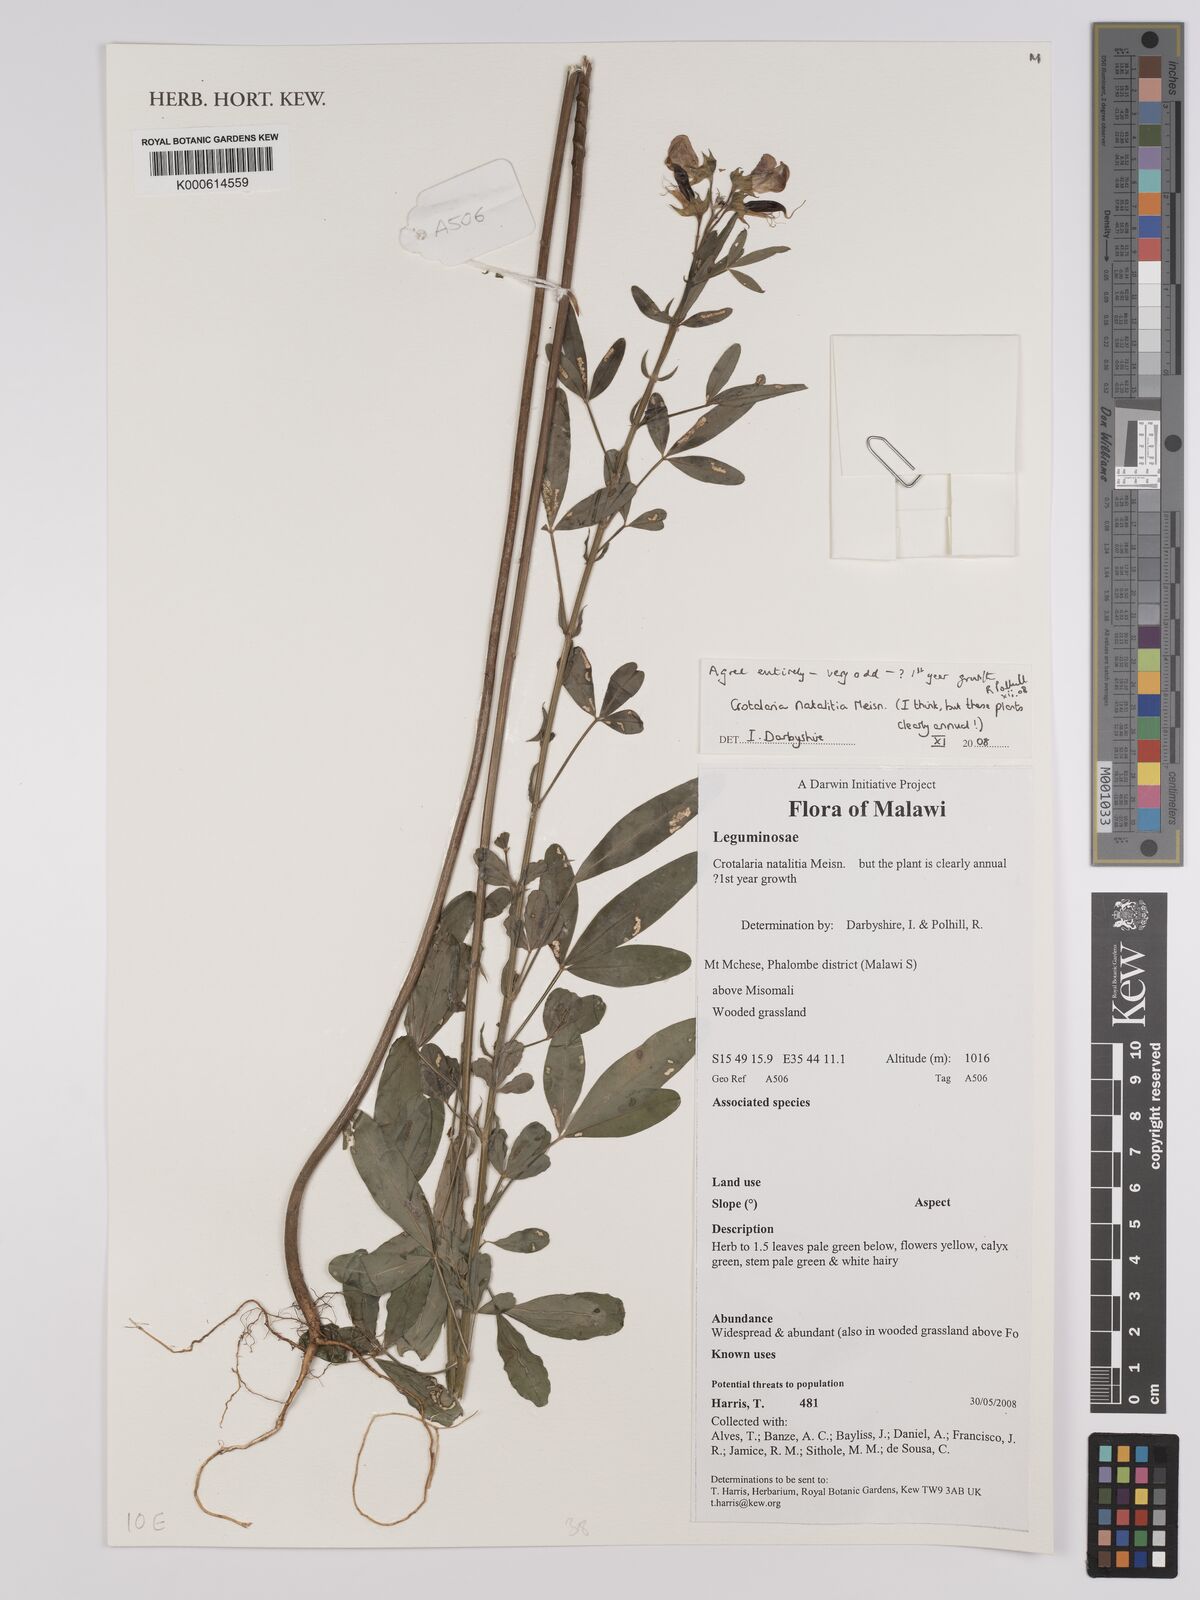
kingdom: Plantae
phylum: Tracheophyta
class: Magnoliopsida
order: Fabales
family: Fabaceae
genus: Crotalaria
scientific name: Crotalaria natalitia
